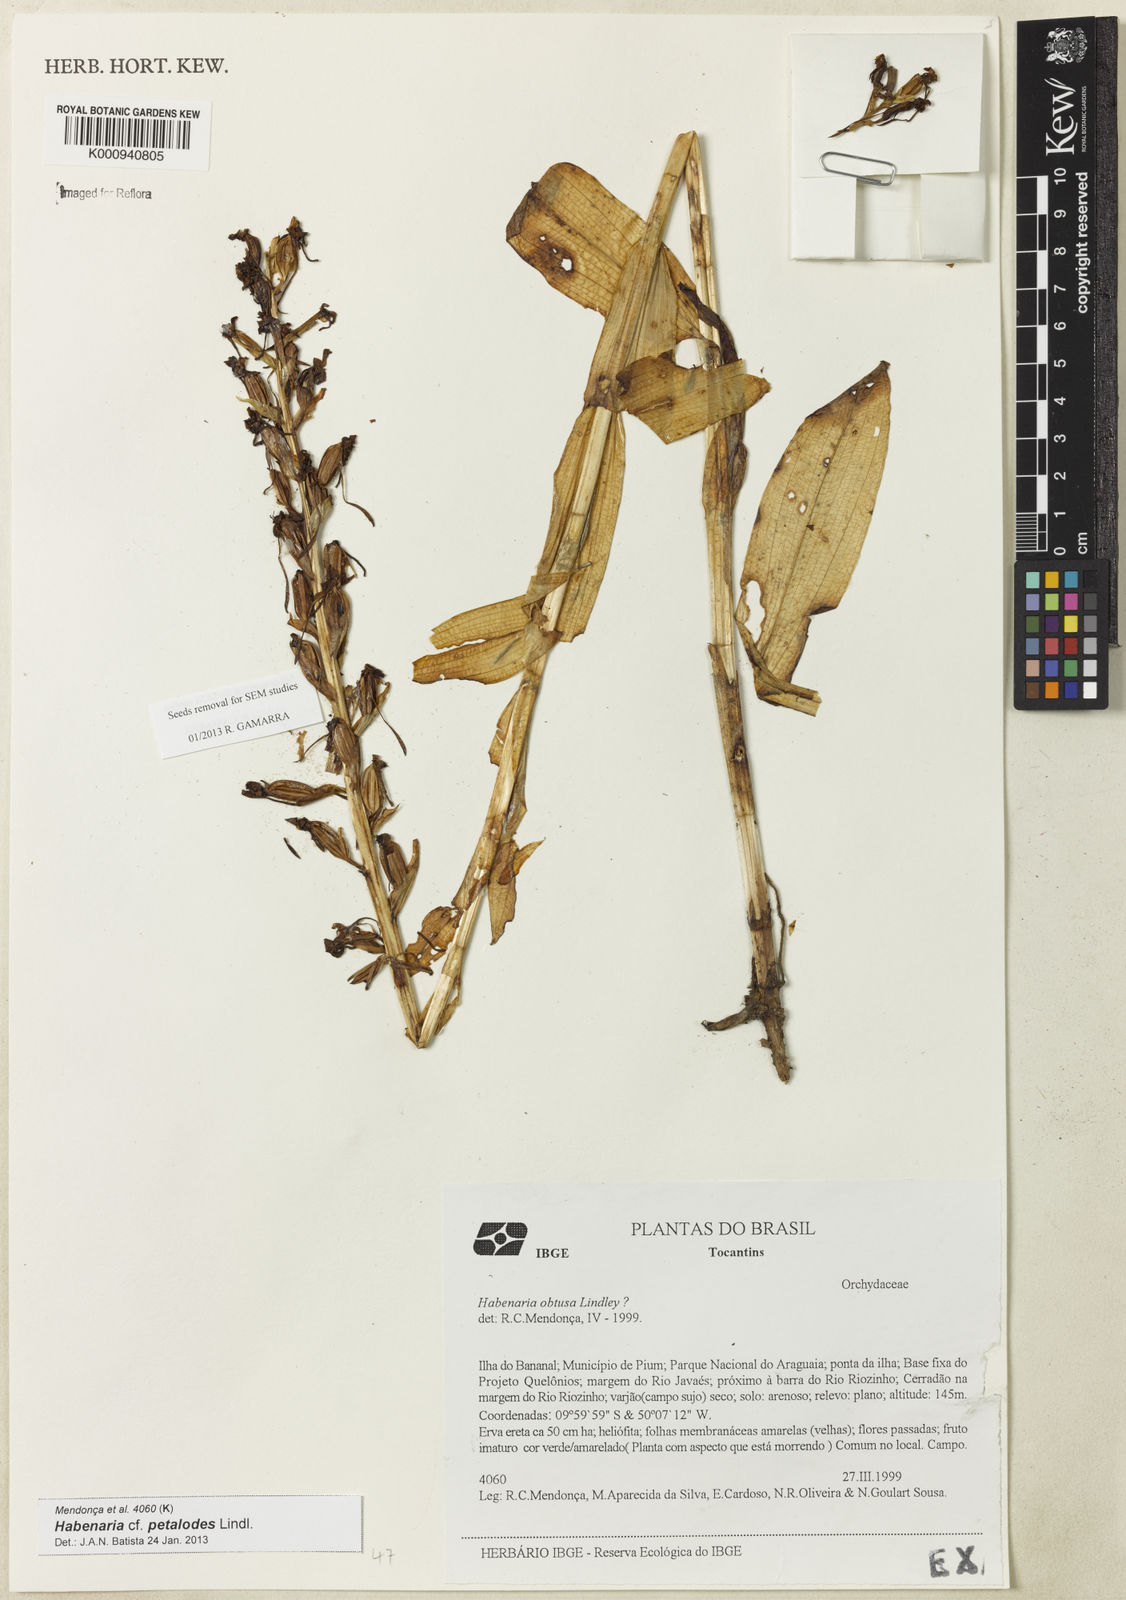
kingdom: Plantae
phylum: Tracheophyta
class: Liliopsida
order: Asparagales
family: Orchidaceae
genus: Habenaria
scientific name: Habenaria petalodes
